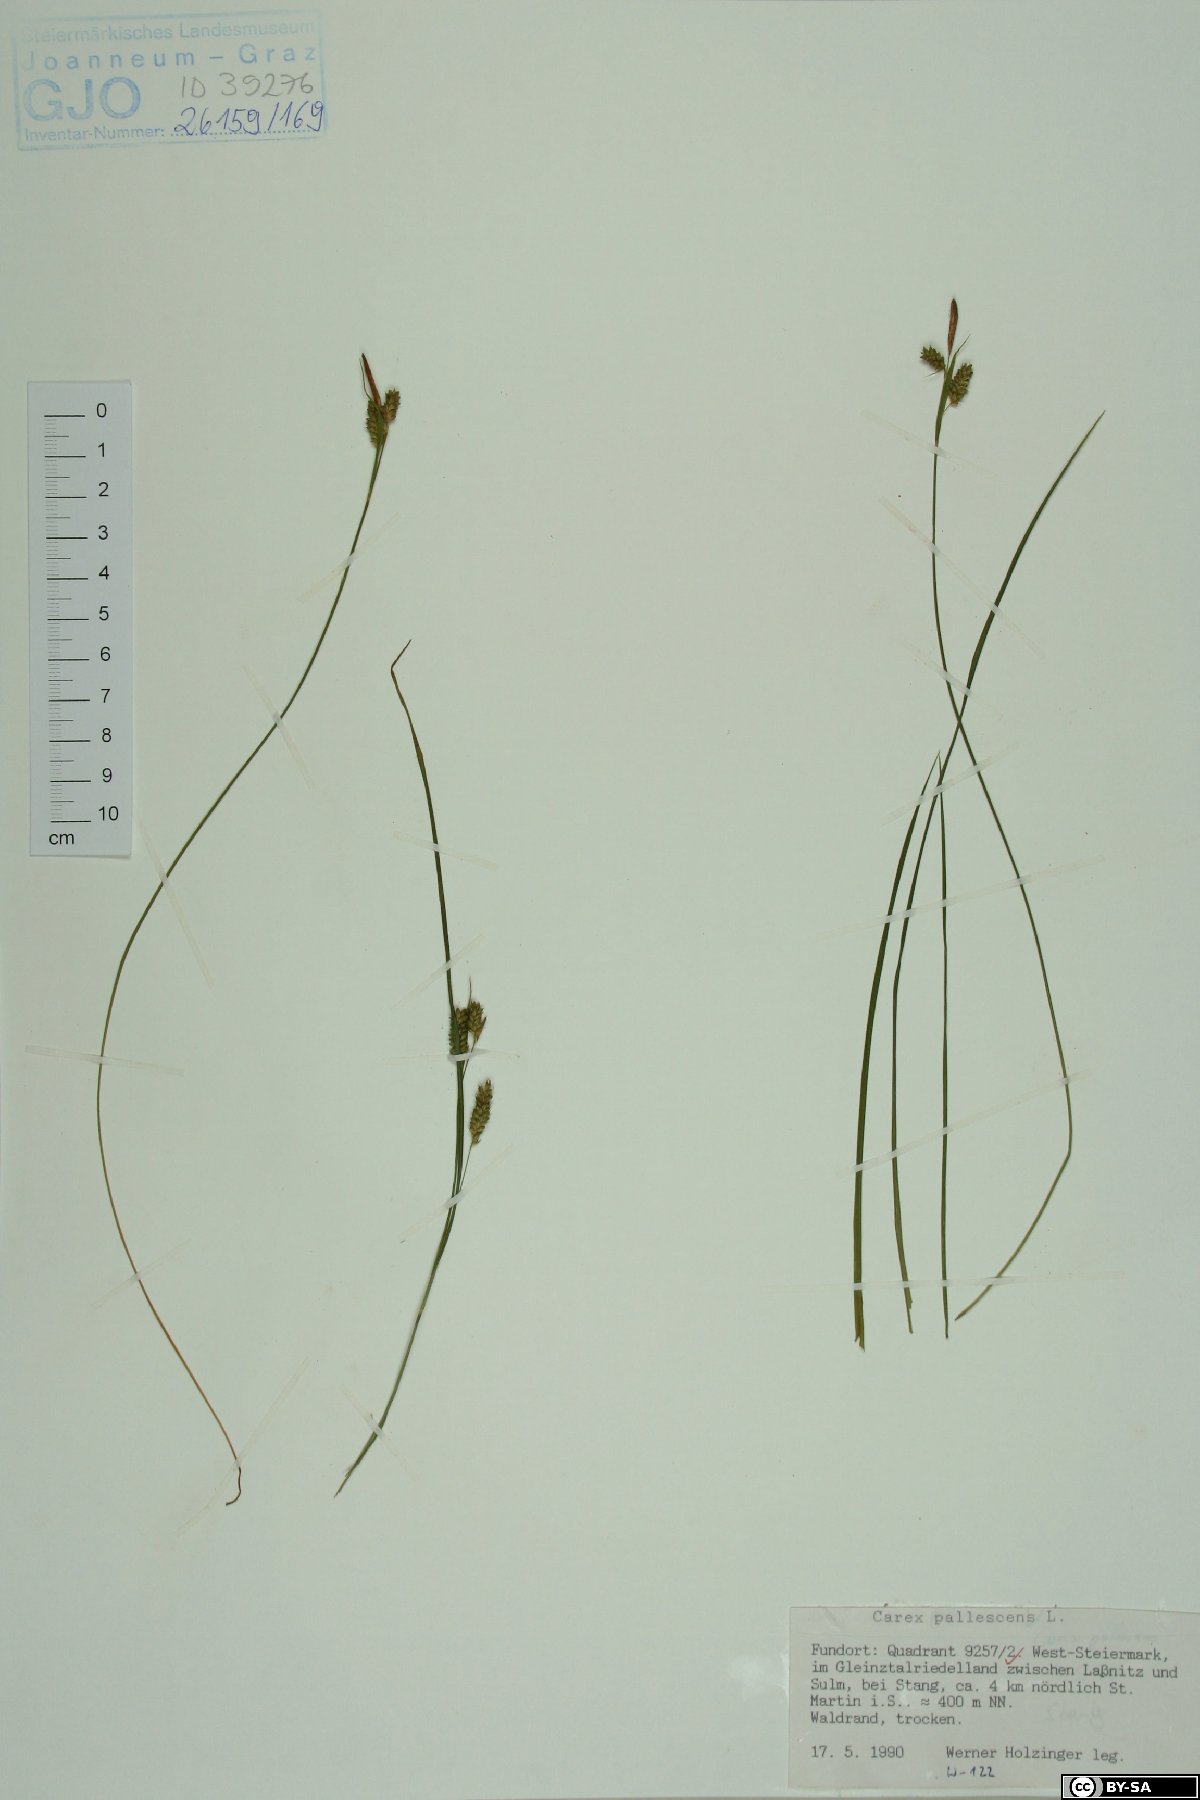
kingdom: Plantae
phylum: Tracheophyta
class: Liliopsida
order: Poales
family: Cyperaceae
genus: Carex
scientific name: Carex pallescens
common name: Pale sedge
